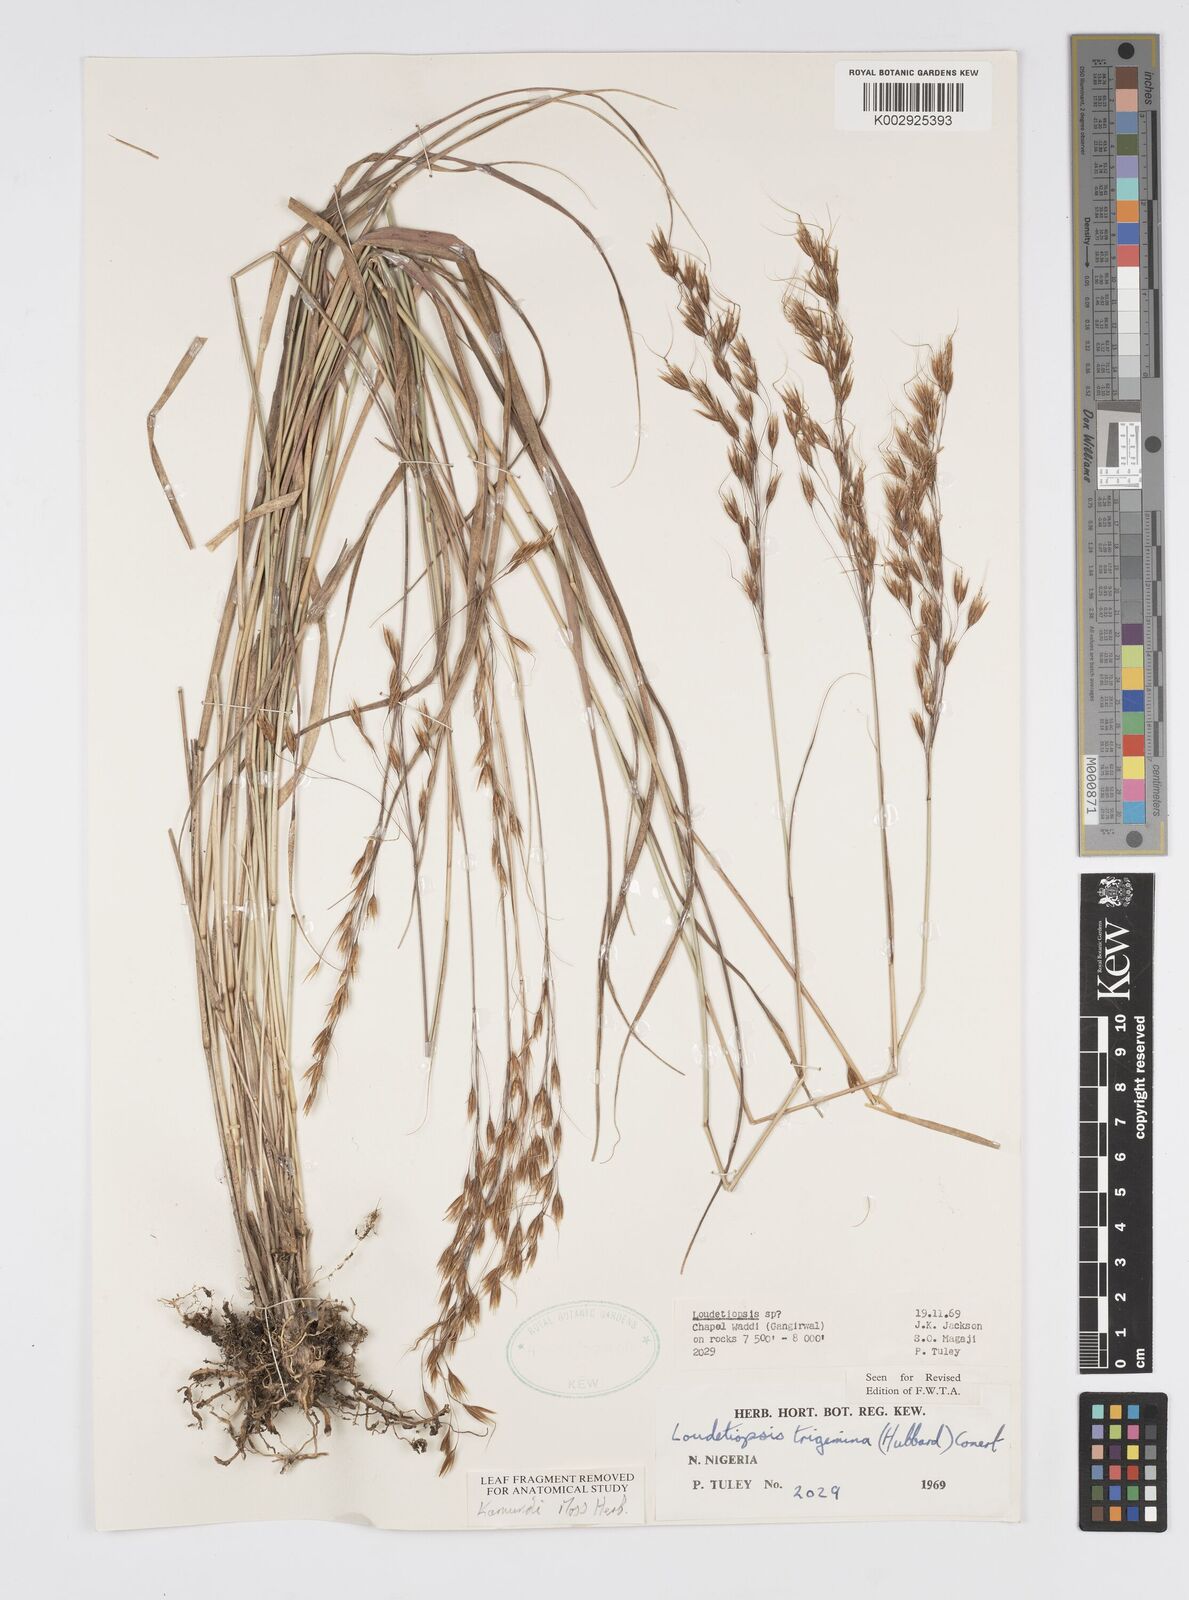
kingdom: Plantae
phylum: Tracheophyta
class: Liliopsida
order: Poales
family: Poaceae
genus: Loudetiopsis
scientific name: Loudetiopsis trigemina
